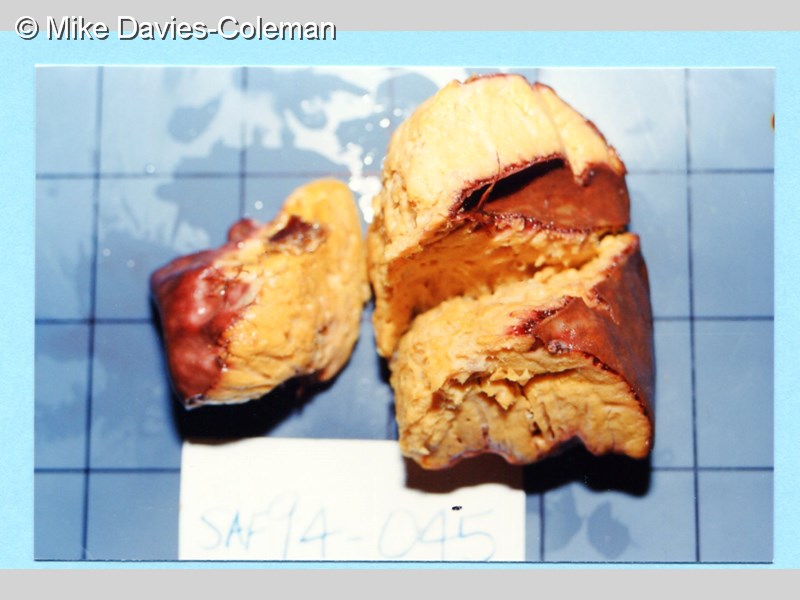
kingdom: Animalia
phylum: Porifera
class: Demospongiae
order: Tetractinellida
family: Ancorinidae
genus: Stelletta
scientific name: Stelletta
